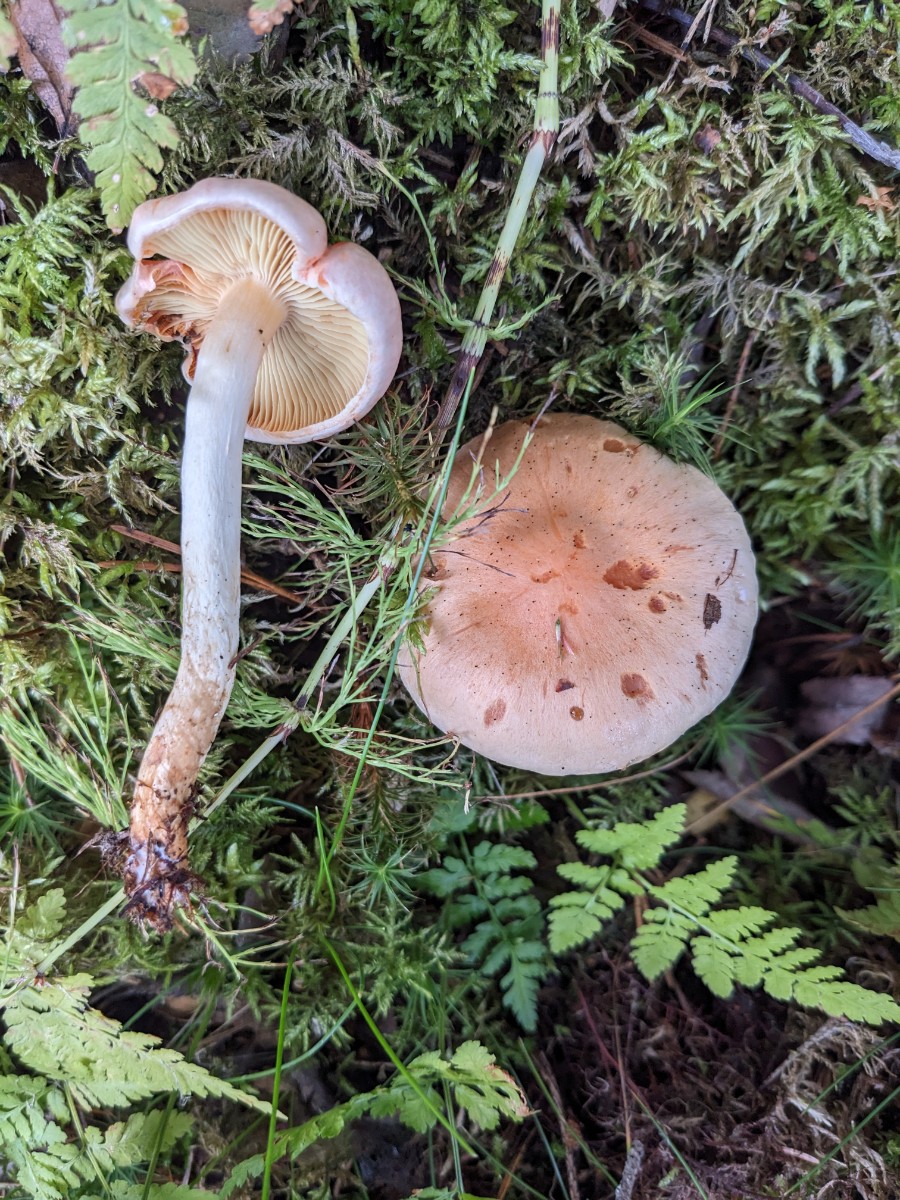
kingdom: Fungi
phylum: Basidiomycota
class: Agaricomycetes
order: Agaricales
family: Strophariaceae
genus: Pyrrhulomyces
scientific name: Pyrrhulomyces astragalinus
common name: safran-skælhat
